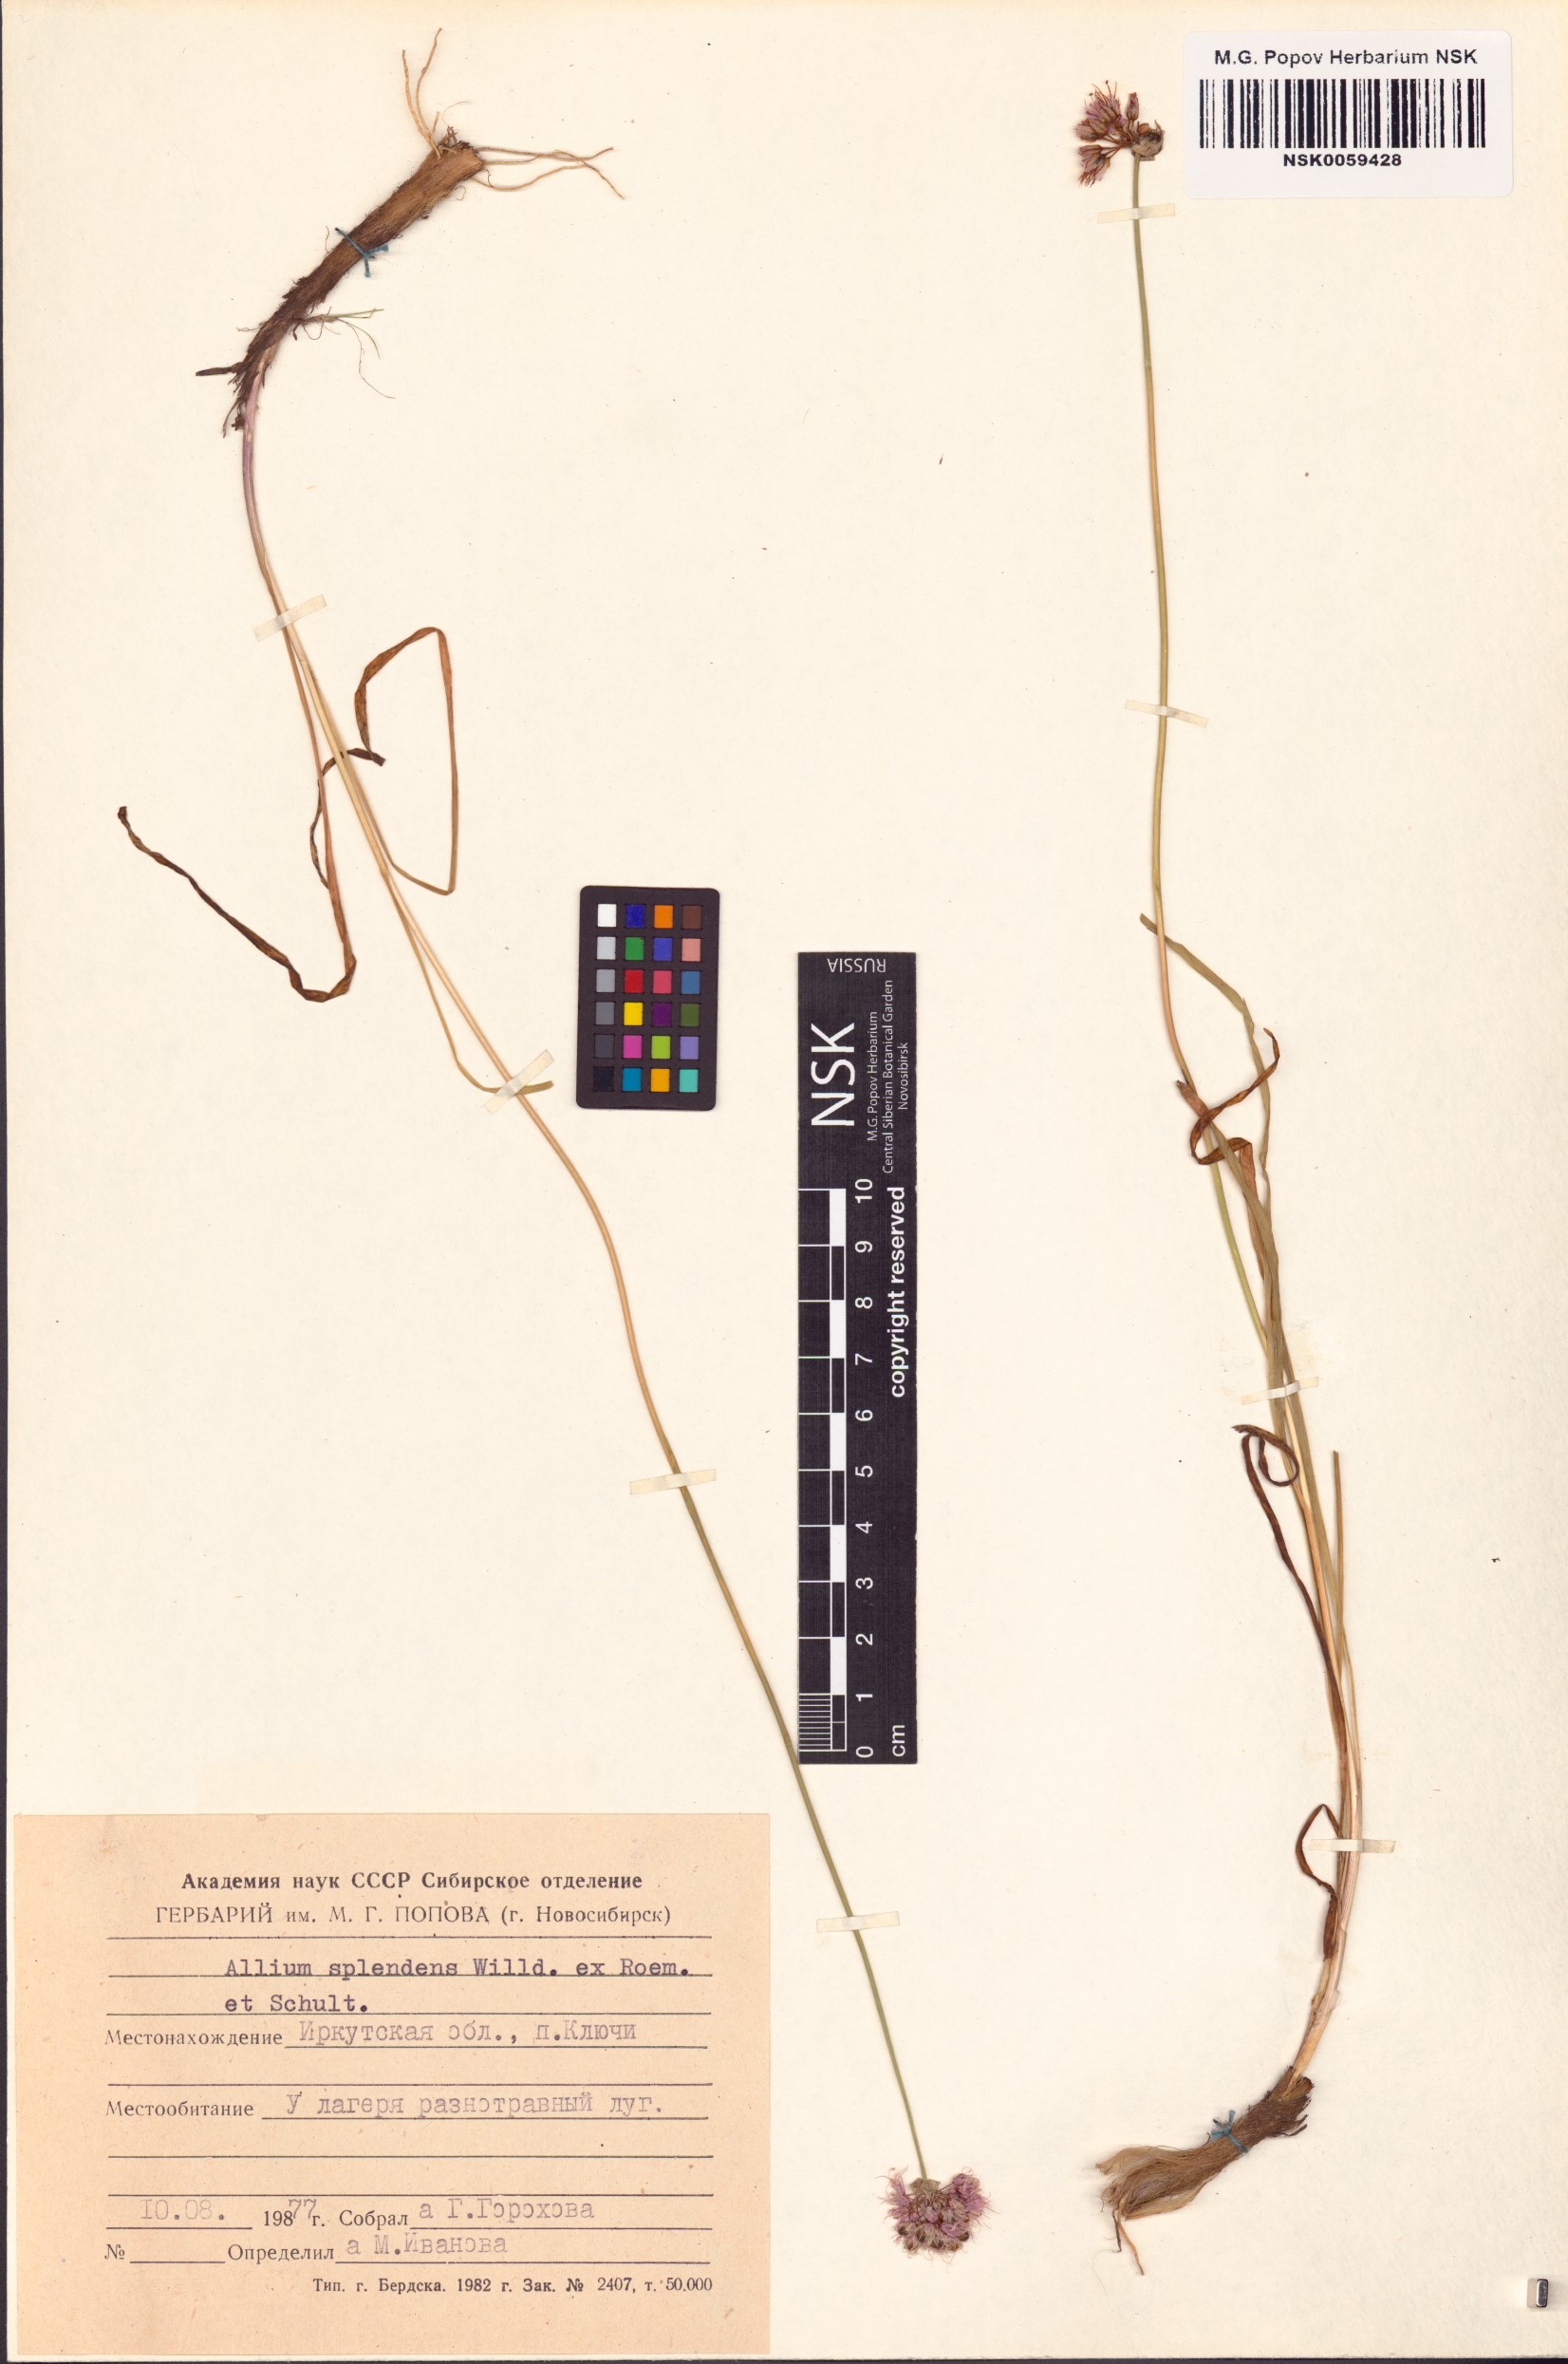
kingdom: Plantae
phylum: Tracheophyta
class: Liliopsida
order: Asparagales
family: Amaryllidaceae
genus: Allium
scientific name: Allium splendens
